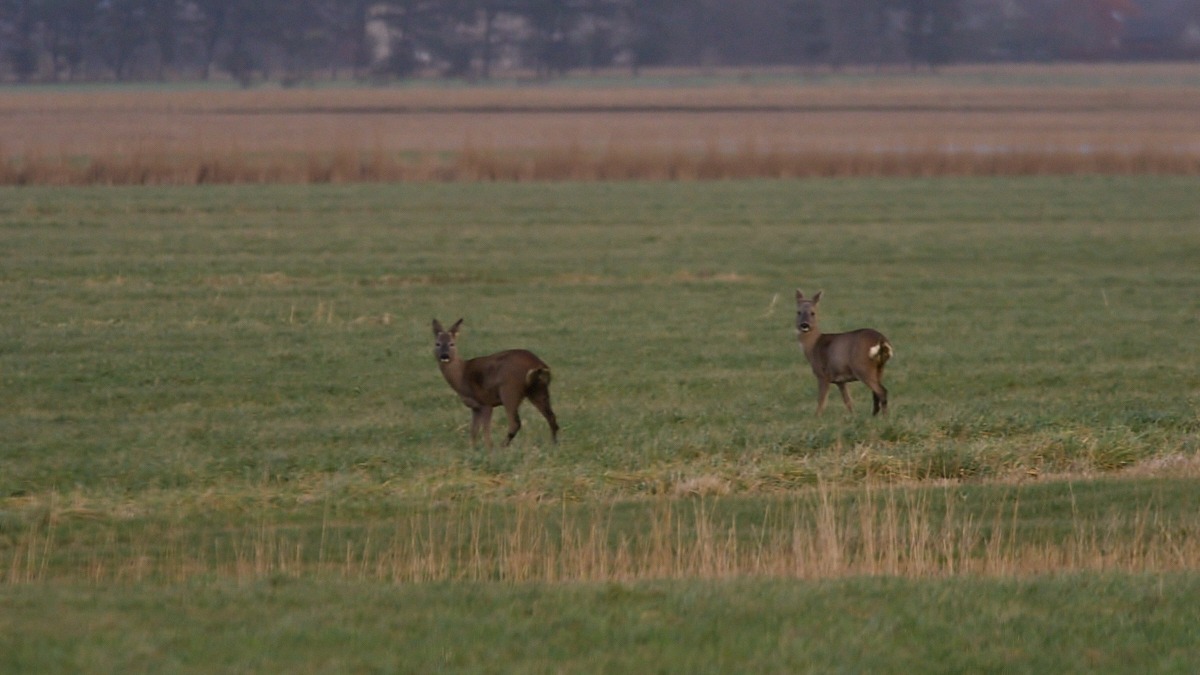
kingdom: Animalia
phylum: Chordata
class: Mammalia
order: Artiodactyla
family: Cervidae
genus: Capreolus
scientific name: Capreolus capreolus
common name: Rådyr
